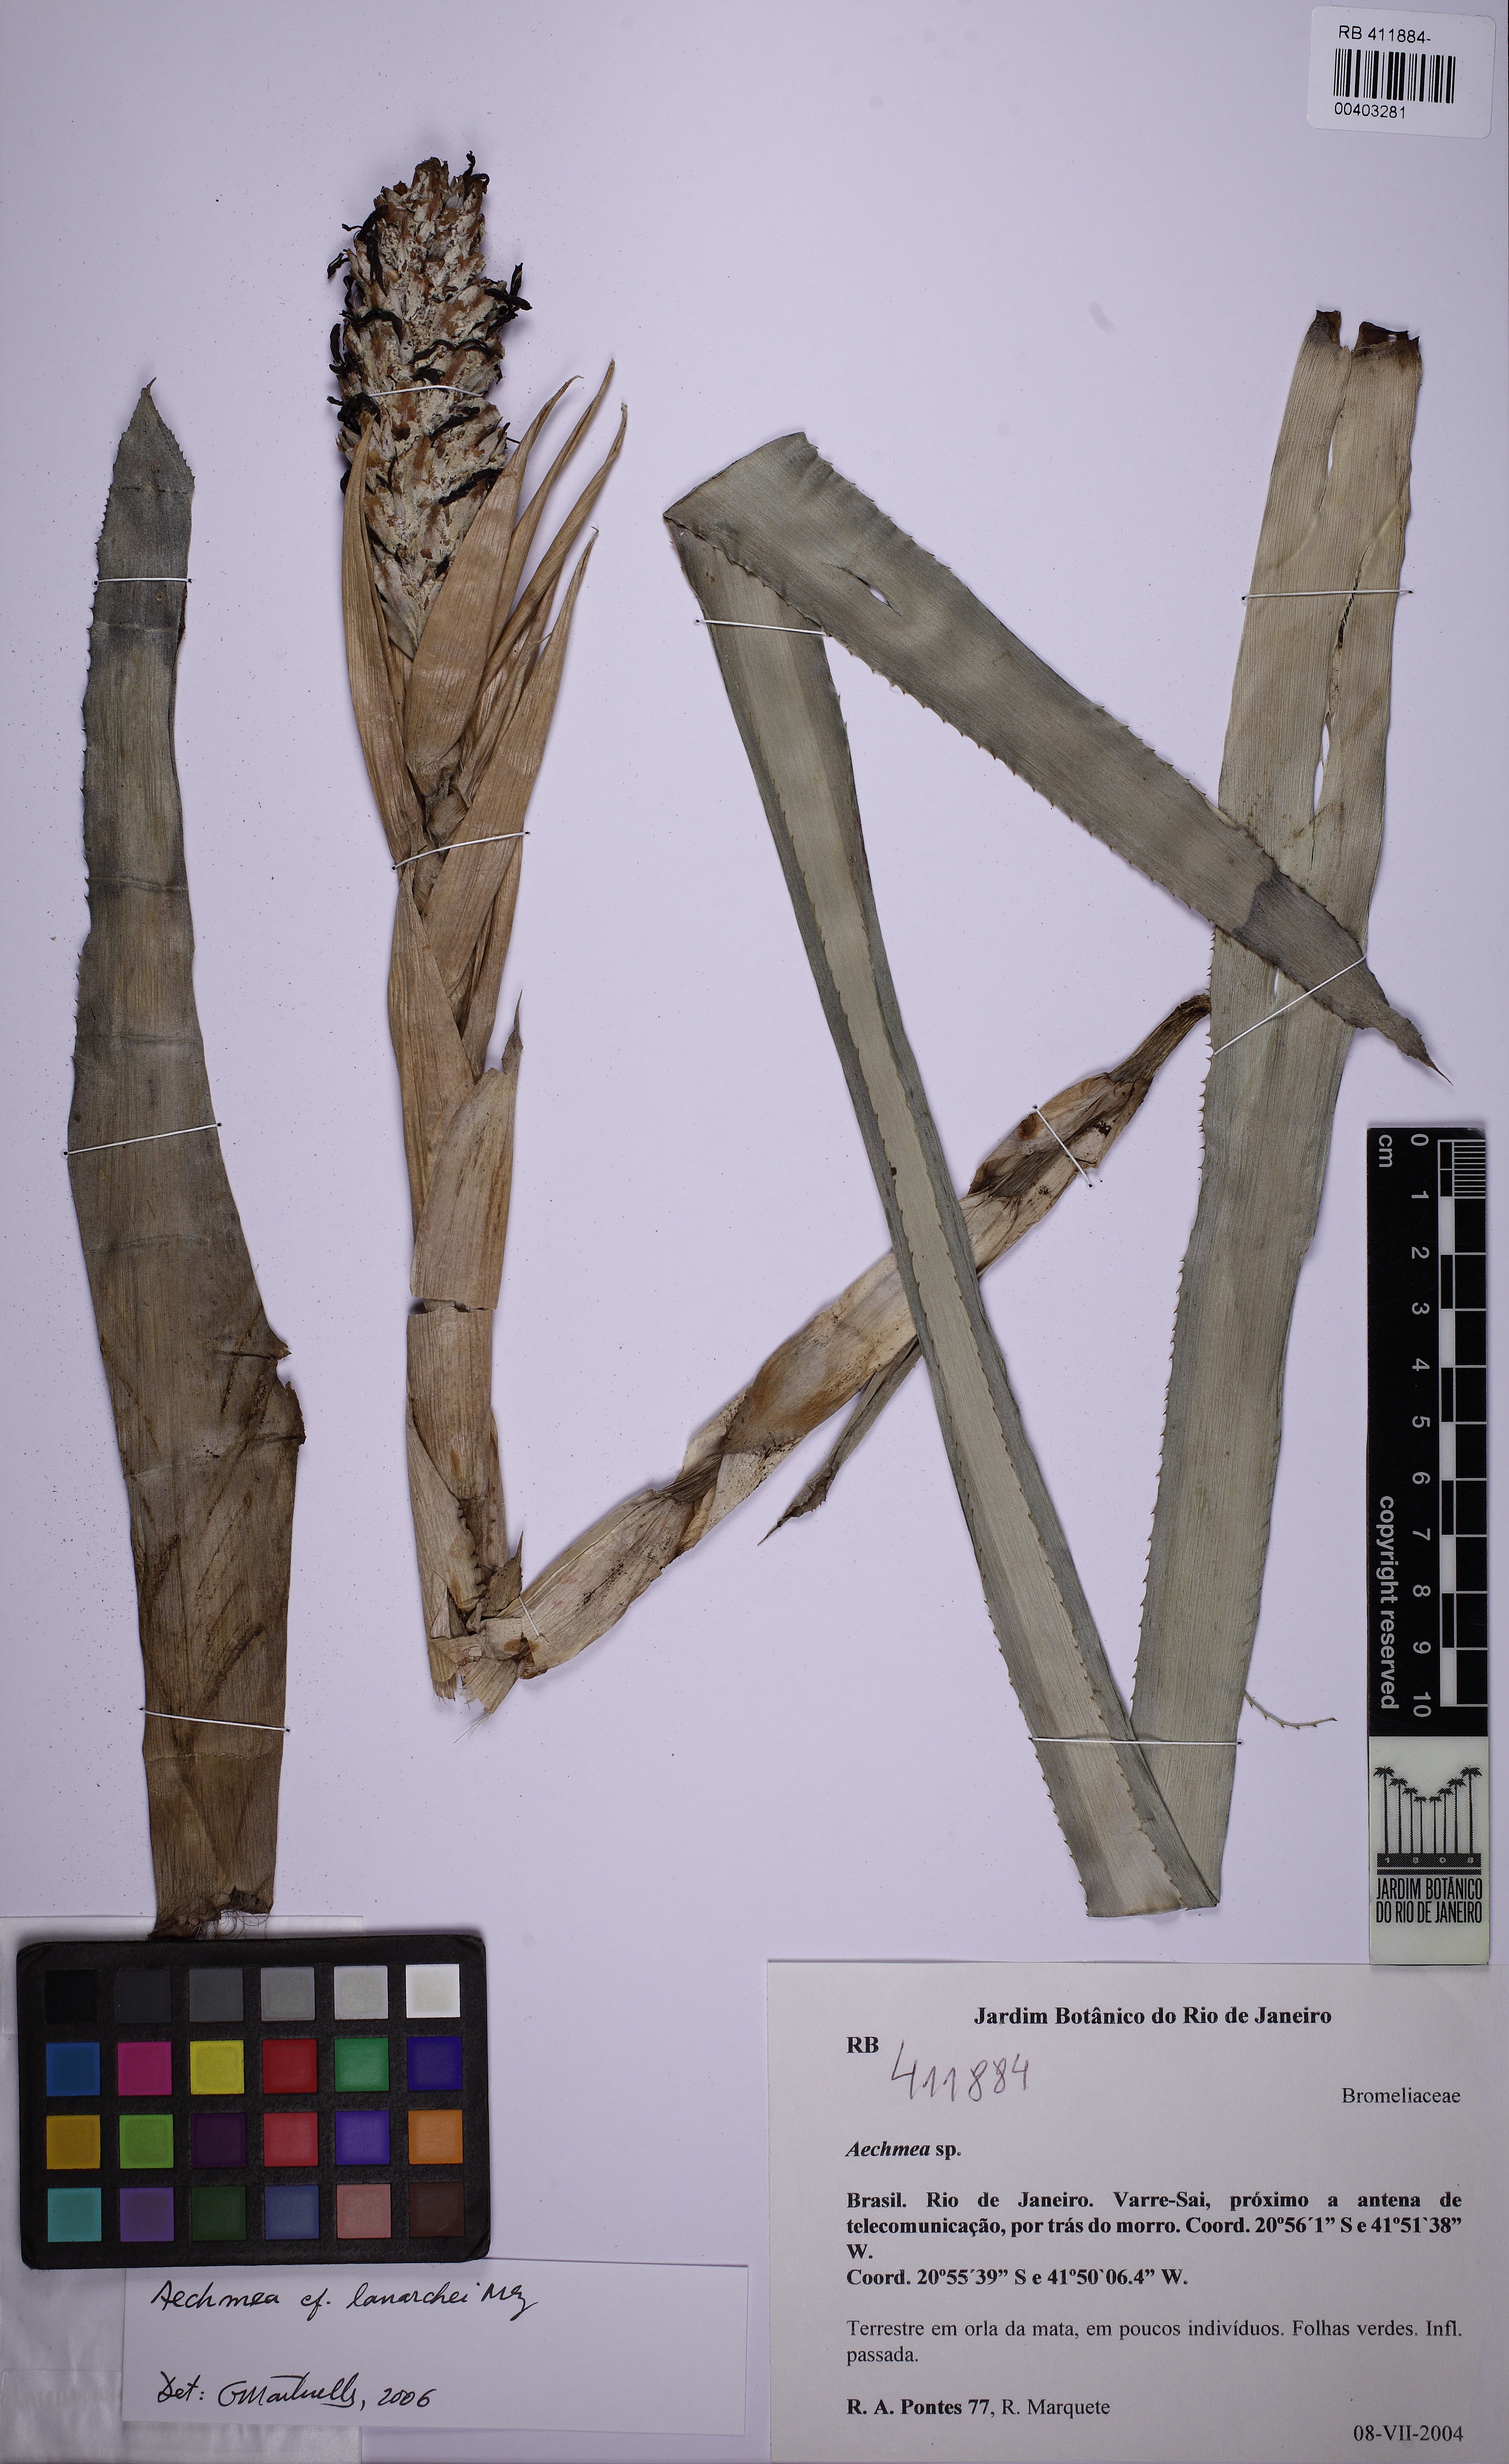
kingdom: Plantae
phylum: Tracheophyta
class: Liliopsida
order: Poales
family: Bromeliaceae
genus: Aechmea
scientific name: Aechmea lamarchei
